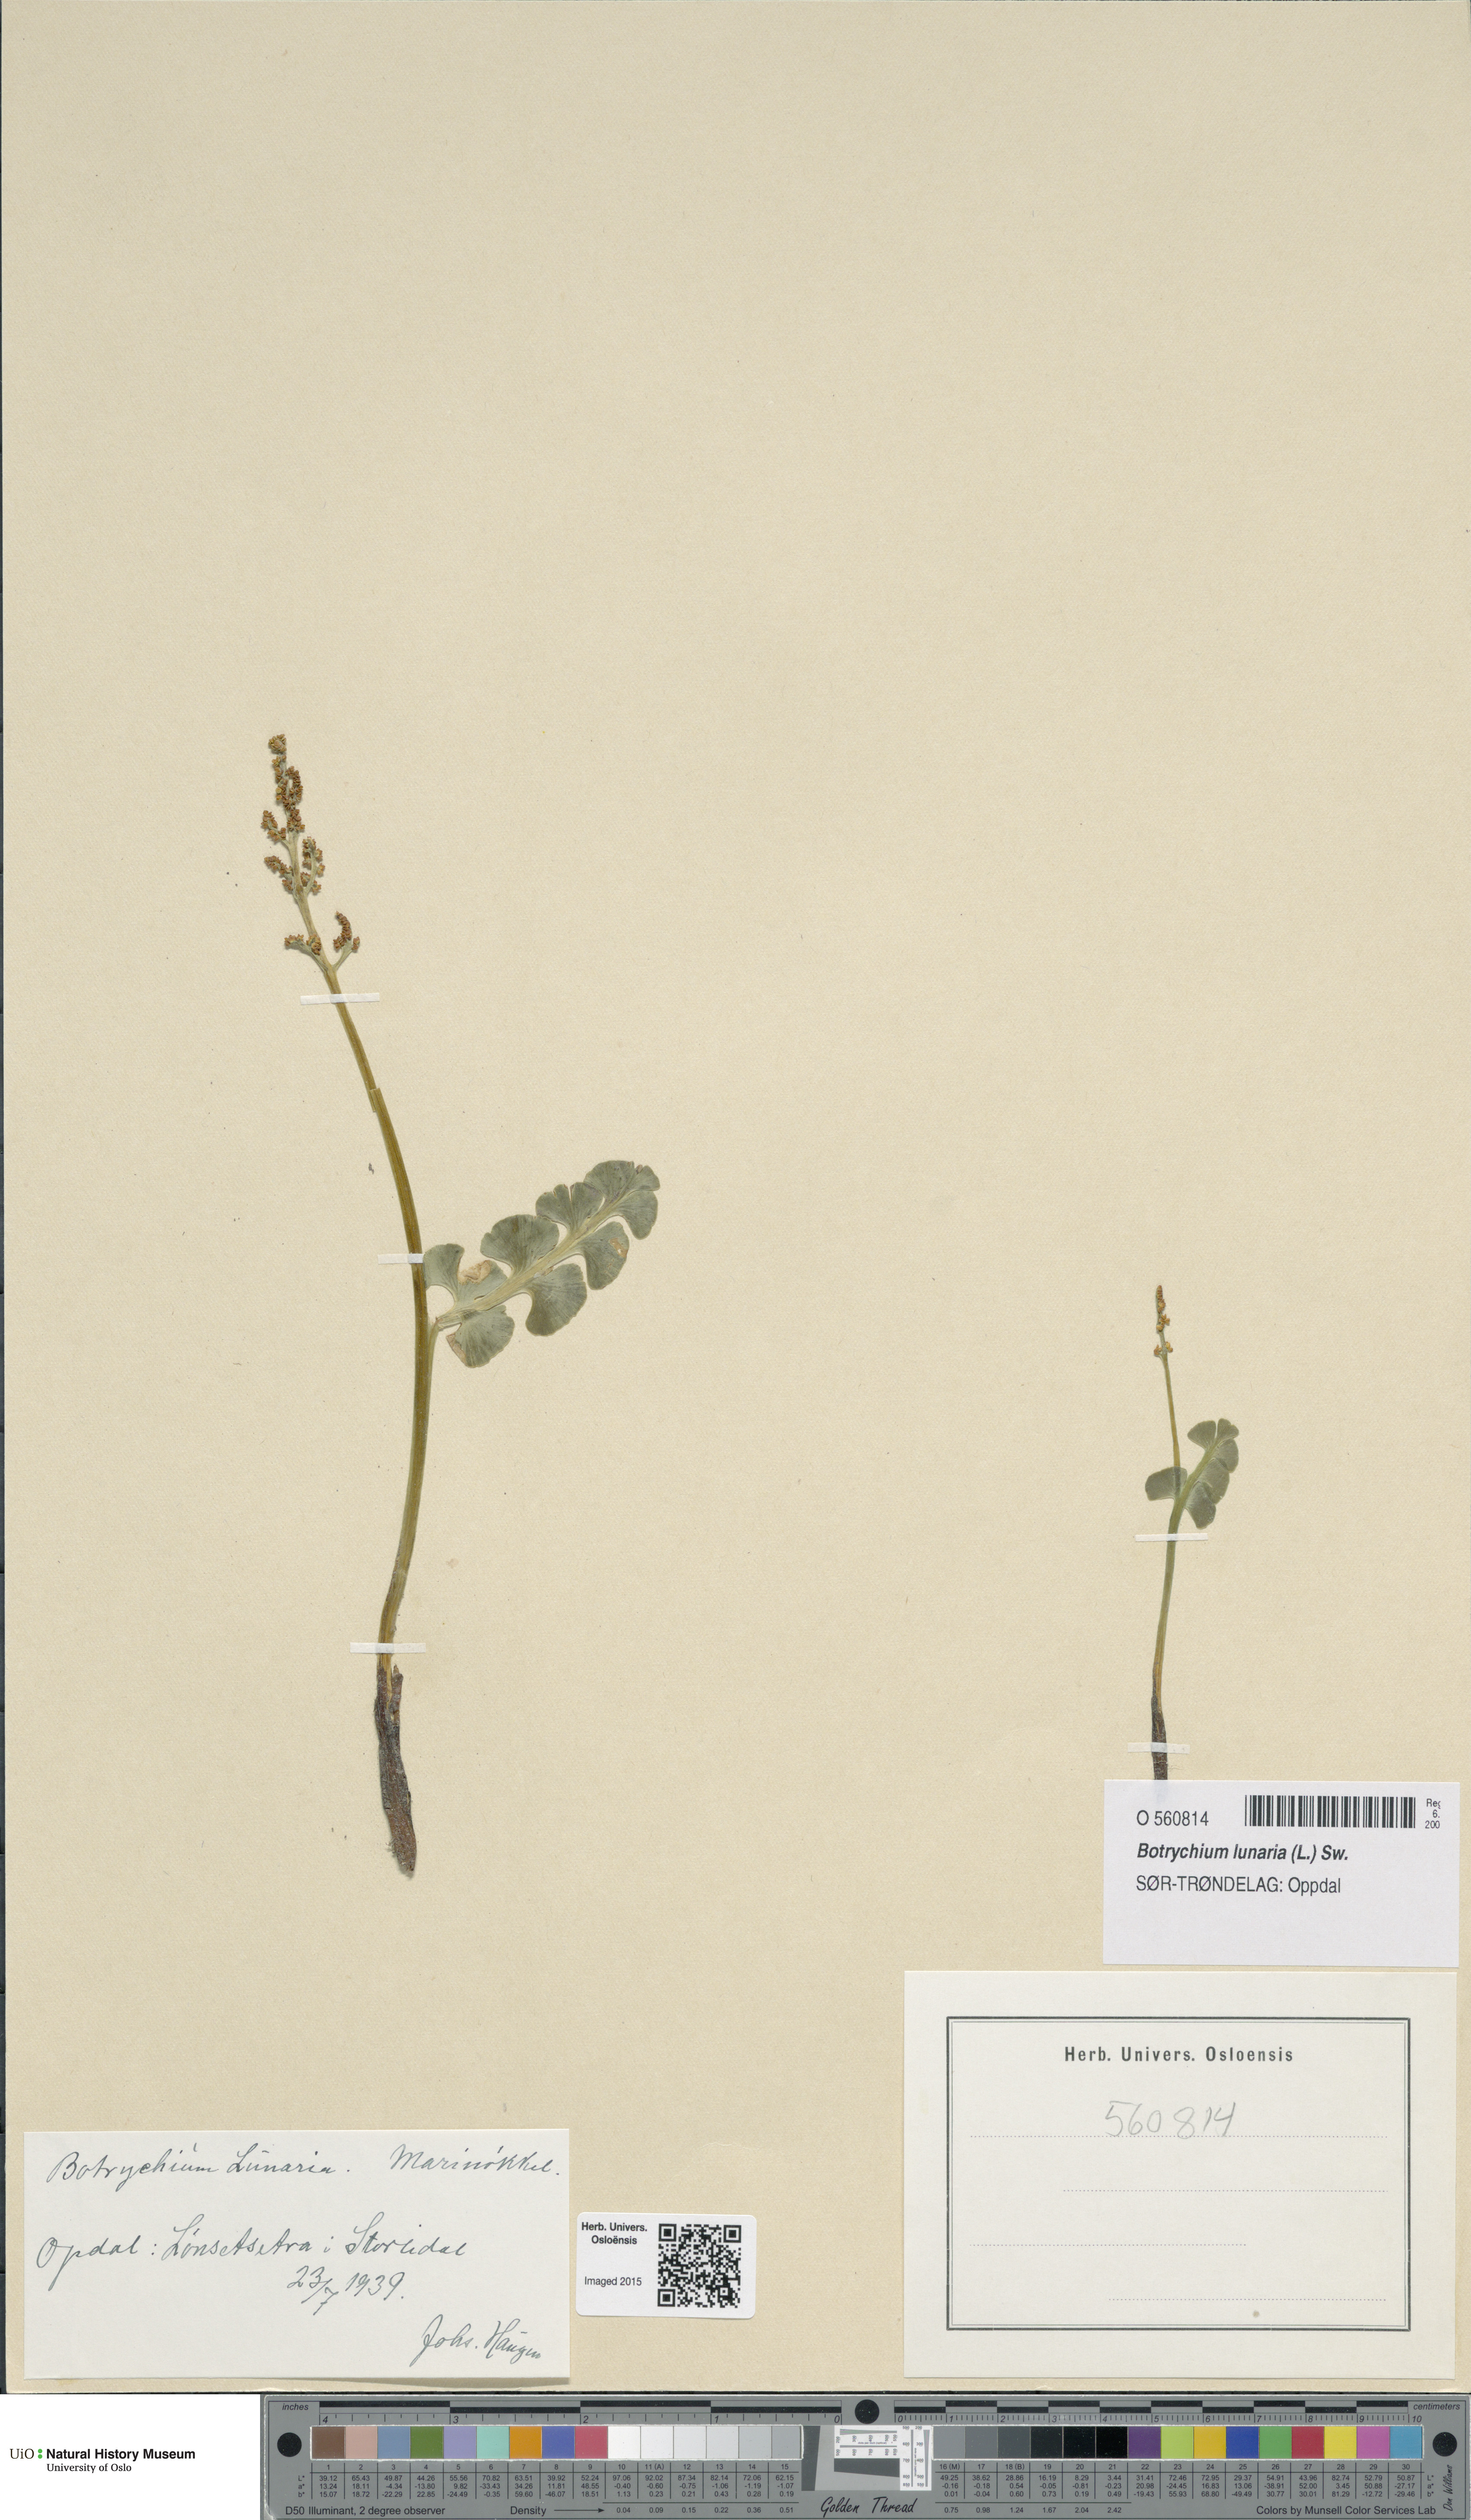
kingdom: Plantae
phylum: Tracheophyta
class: Polypodiopsida
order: Ophioglossales
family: Ophioglossaceae
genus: Botrychium
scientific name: Botrychium lunaria
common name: Moonwort
